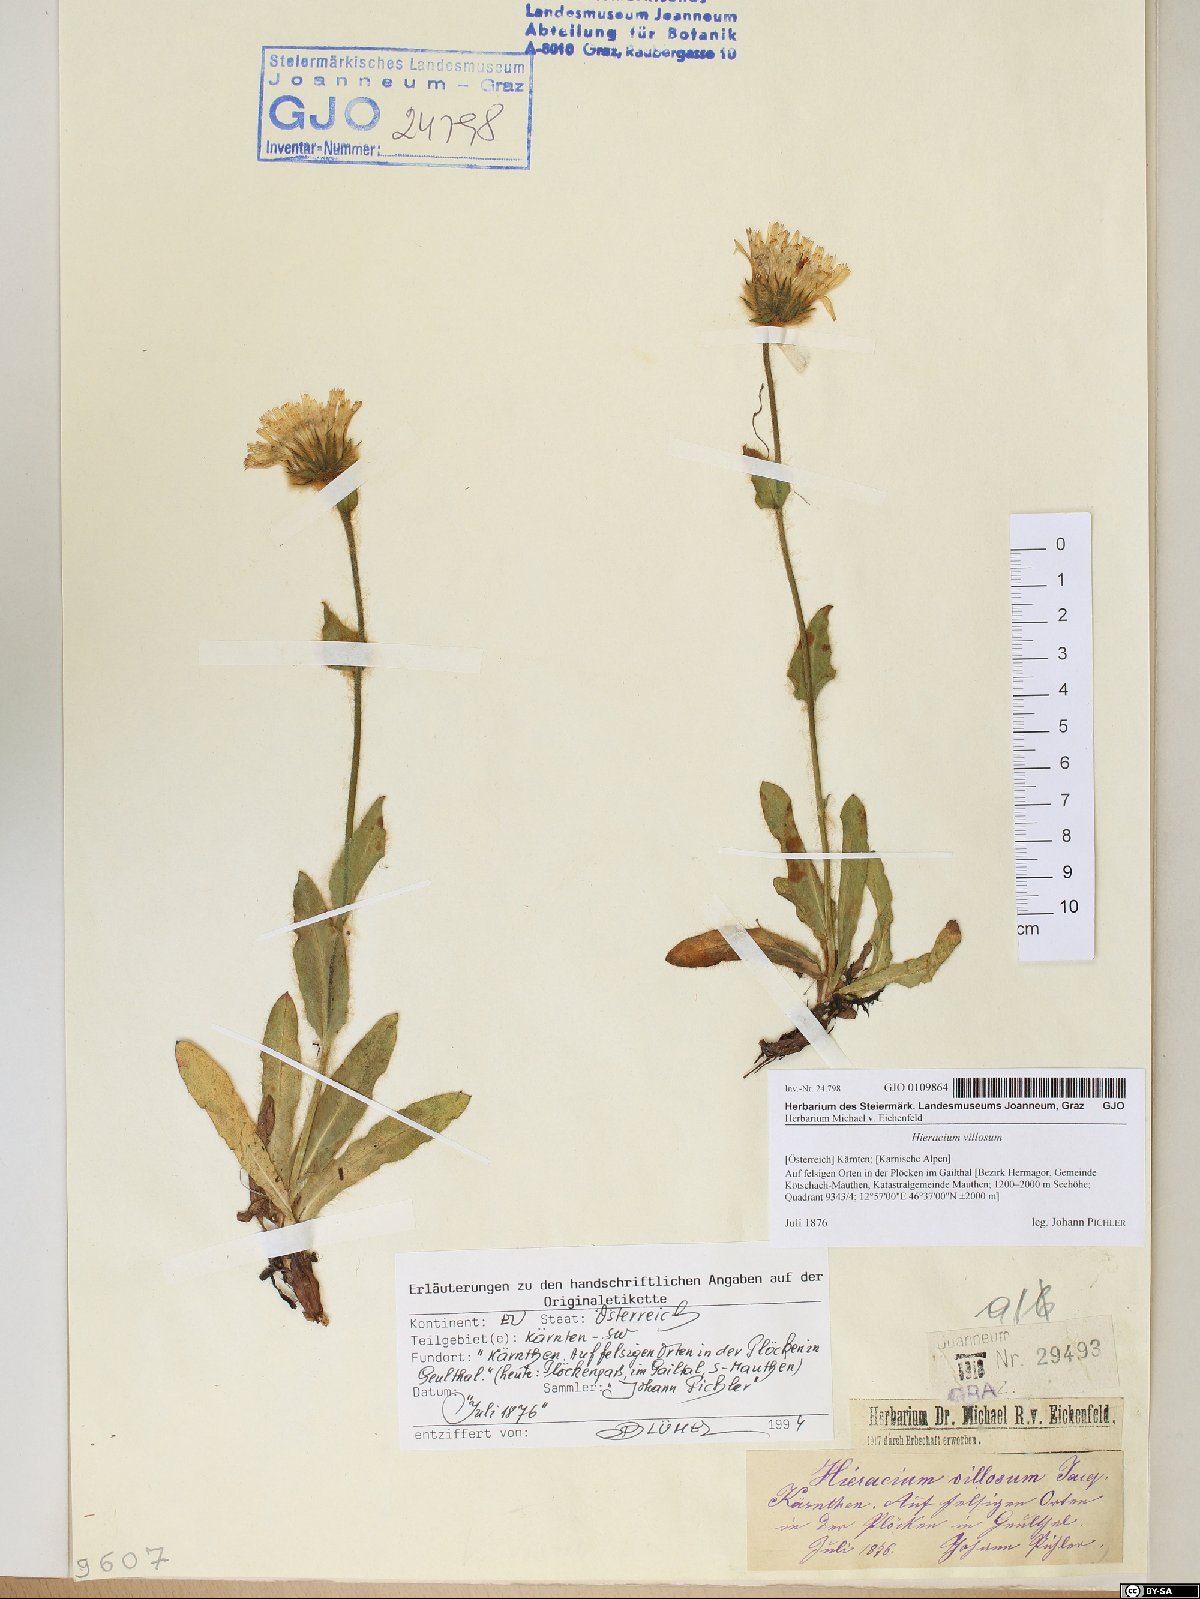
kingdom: Plantae
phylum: Tracheophyta
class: Magnoliopsida
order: Asterales
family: Asteraceae
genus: Hieracium
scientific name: Hieracium villosum
